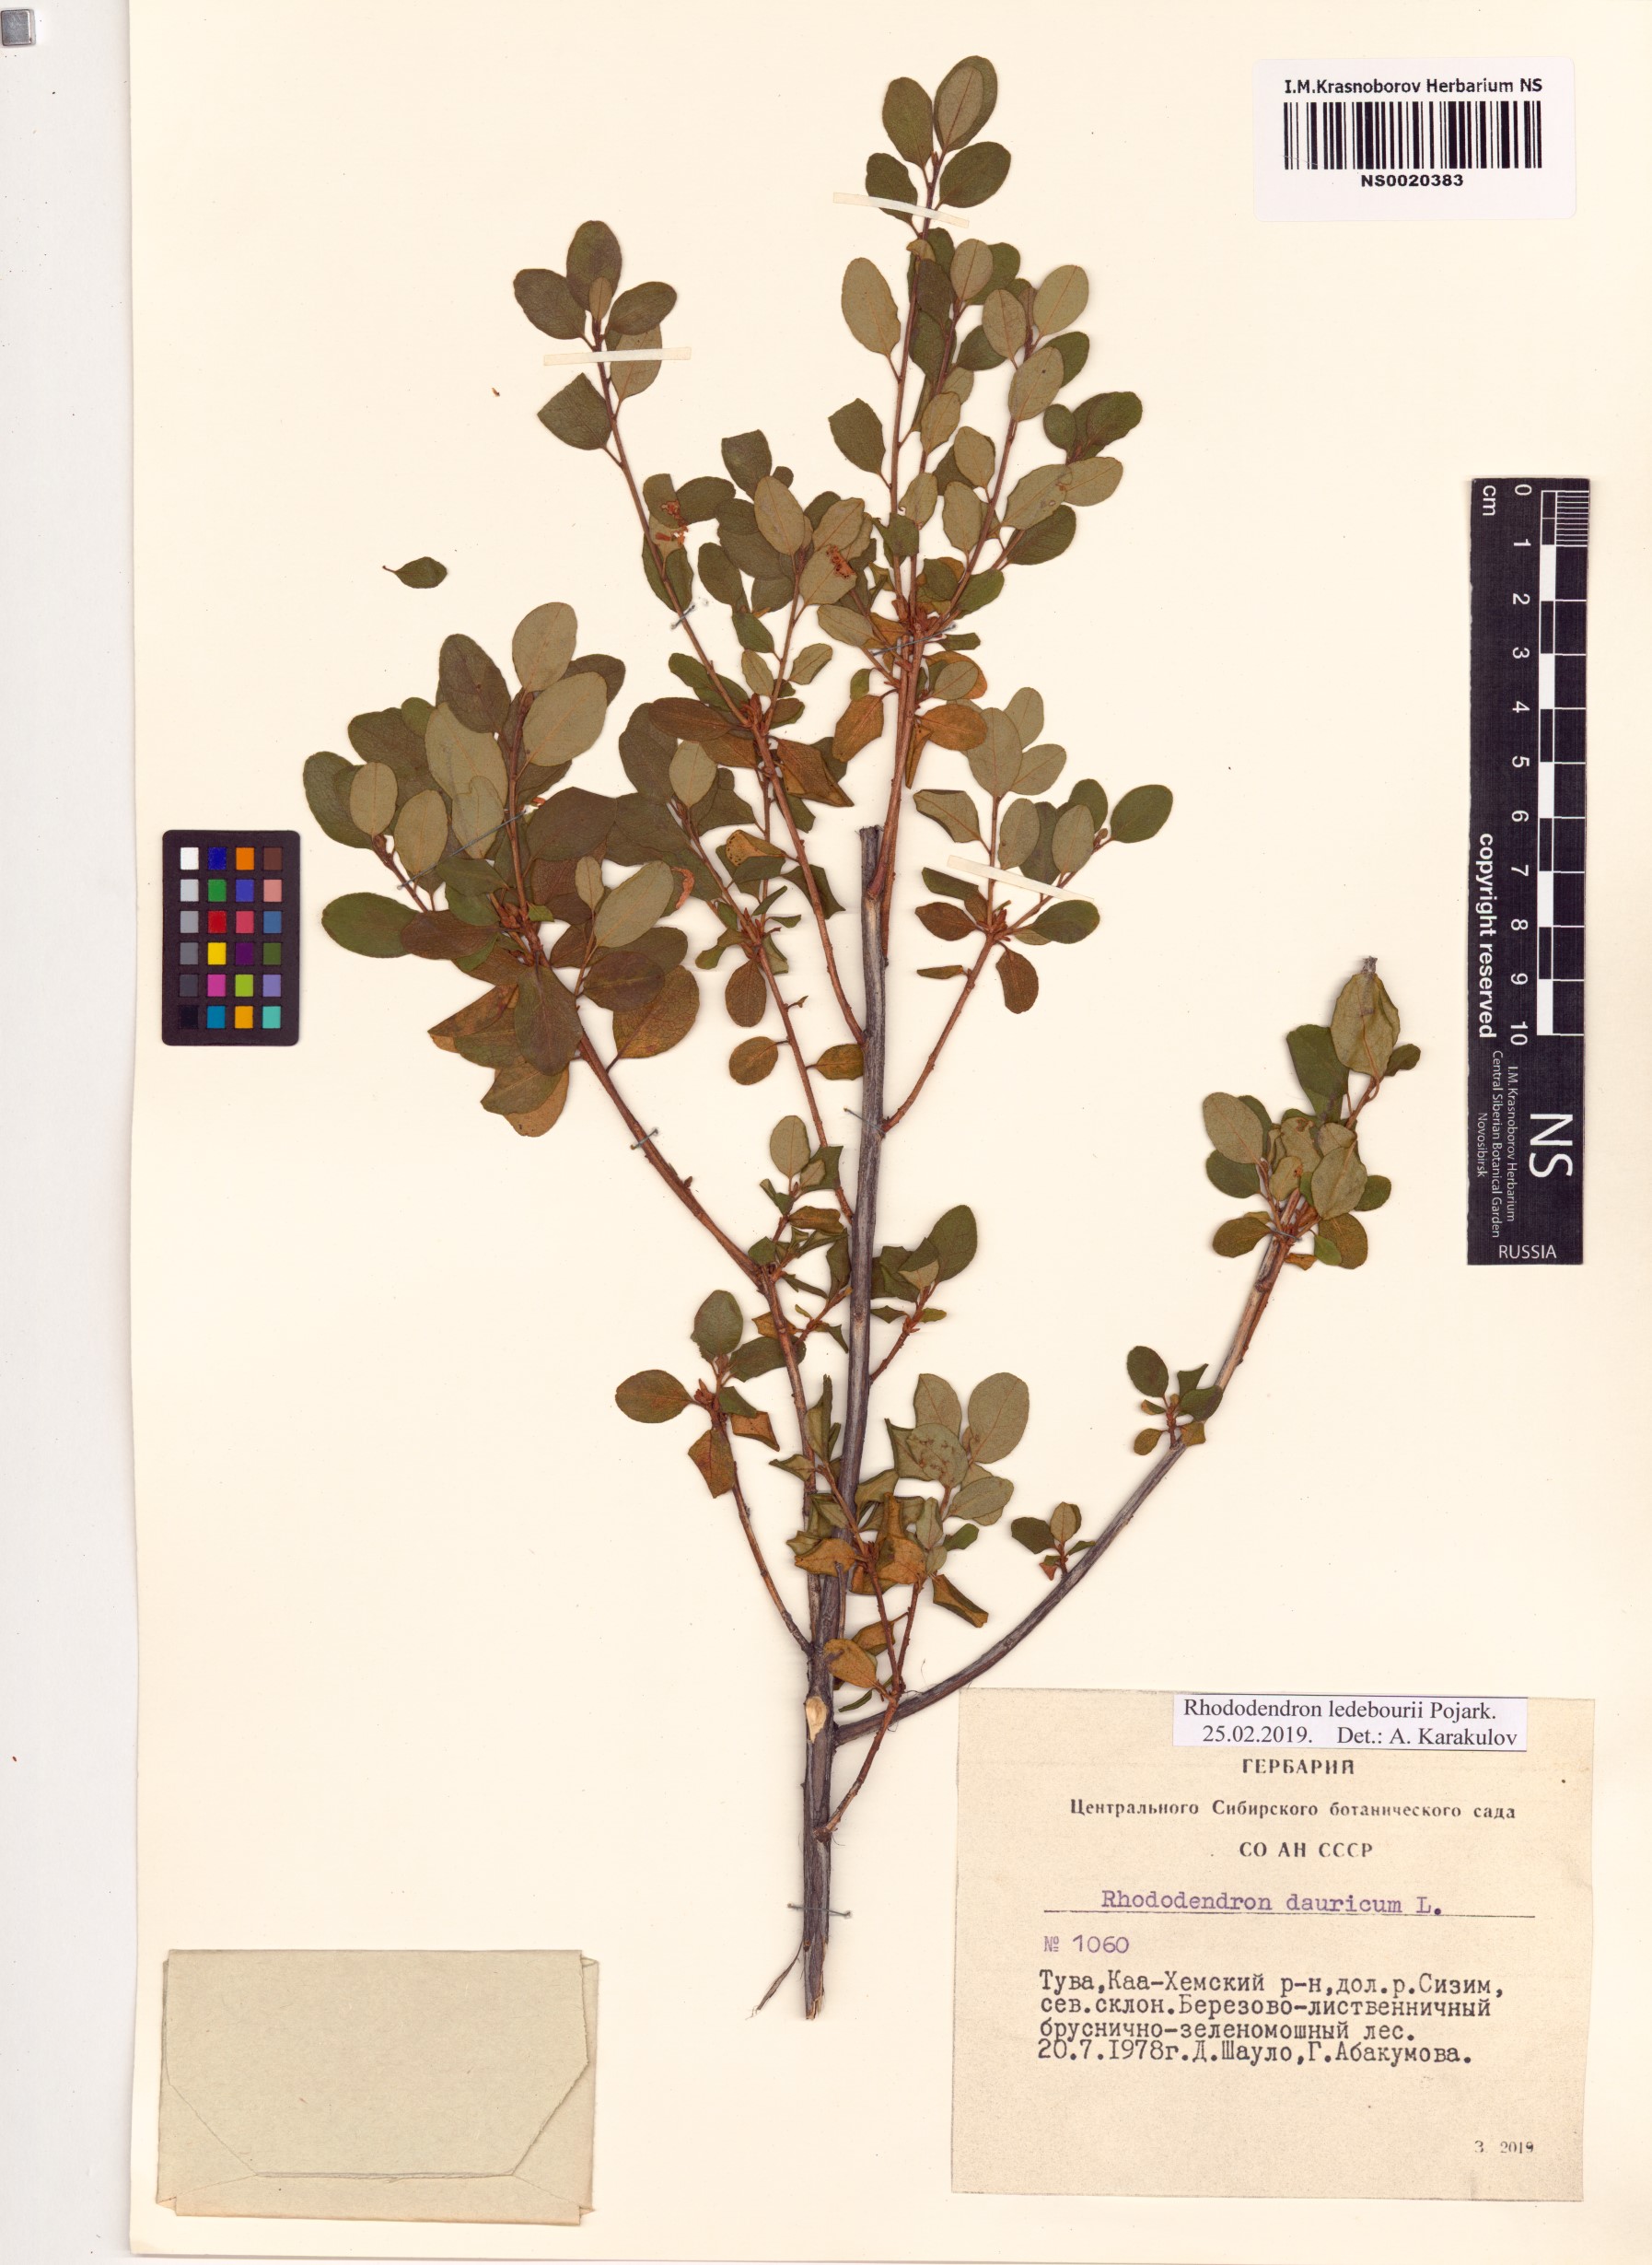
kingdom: Plantae
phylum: Tracheophyta
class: Magnoliopsida
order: Ericales
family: Ericaceae
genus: Rhododendron
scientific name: Rhododendron dauricum
